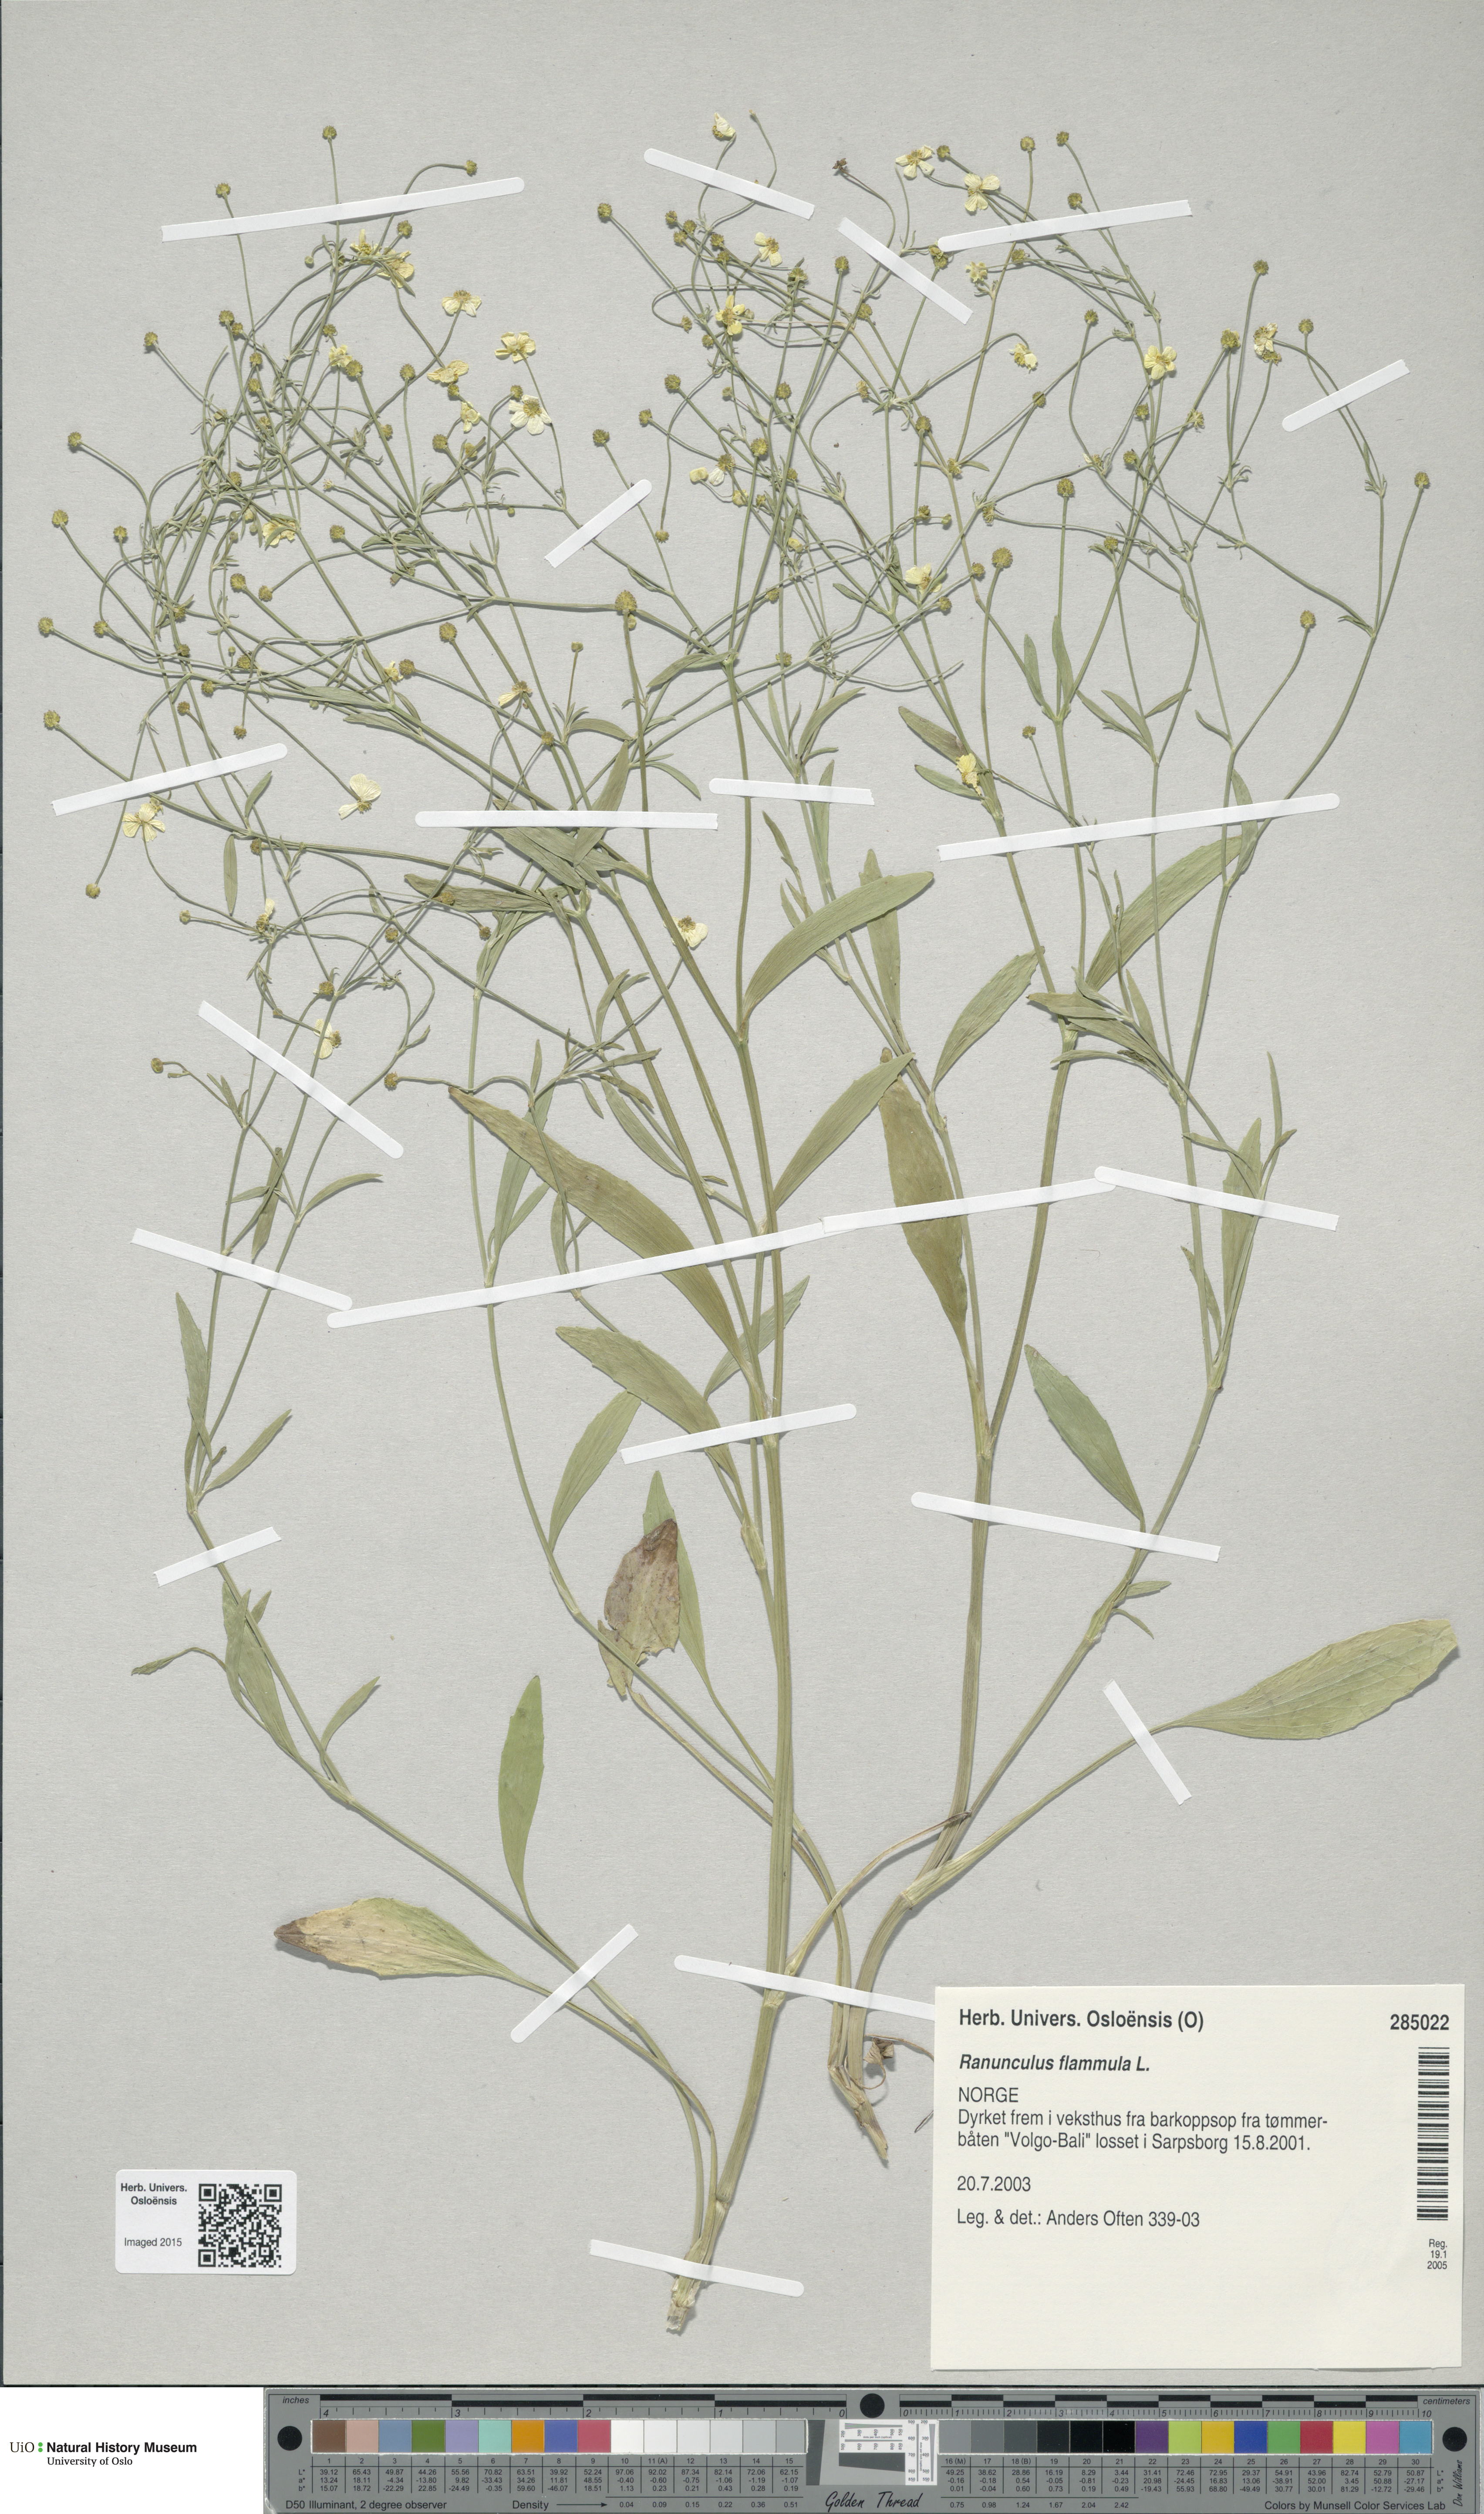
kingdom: Plantae
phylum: Tracheophyta
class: Magnoliopsida
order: Ranunculales
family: Ranunculaceae
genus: Ranunculus
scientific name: Ranunculus flammula
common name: Lesser spearwort
